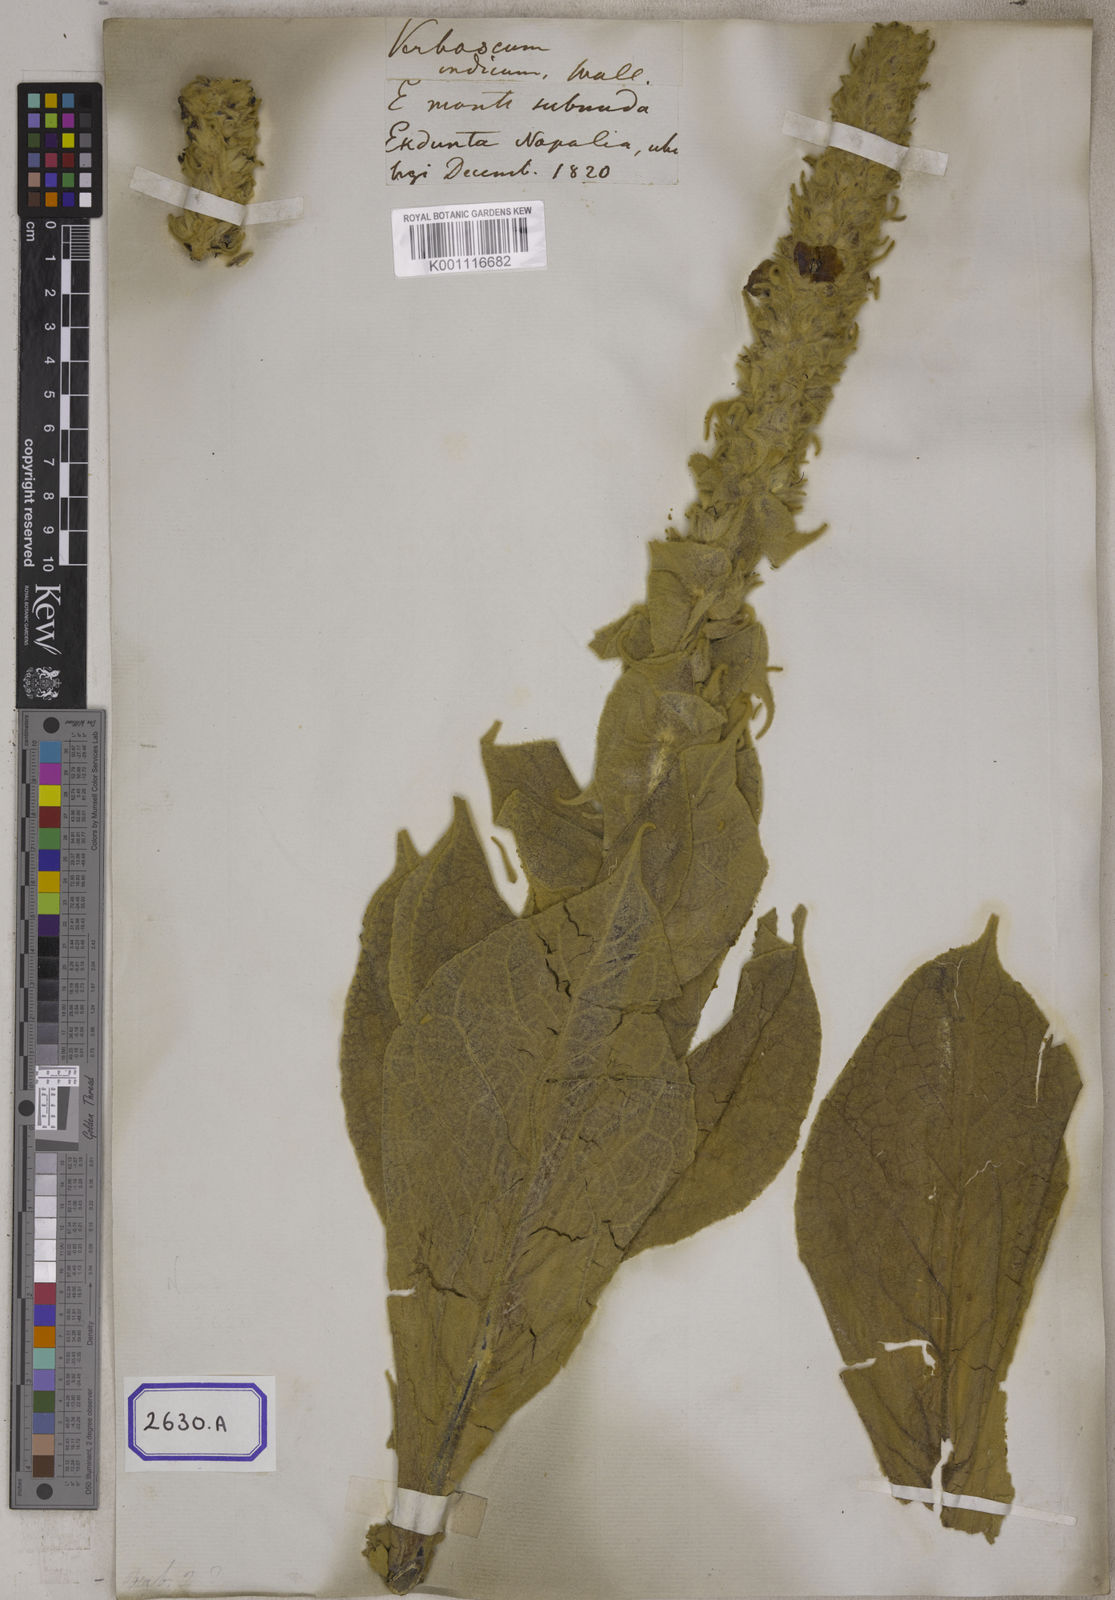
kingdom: Plantae
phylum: Tracheophyta
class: Magnoliopsida
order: Lamiales
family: Scrophulariaceae
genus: Verbascum
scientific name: Verbascum thapsus
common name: Common mullein
